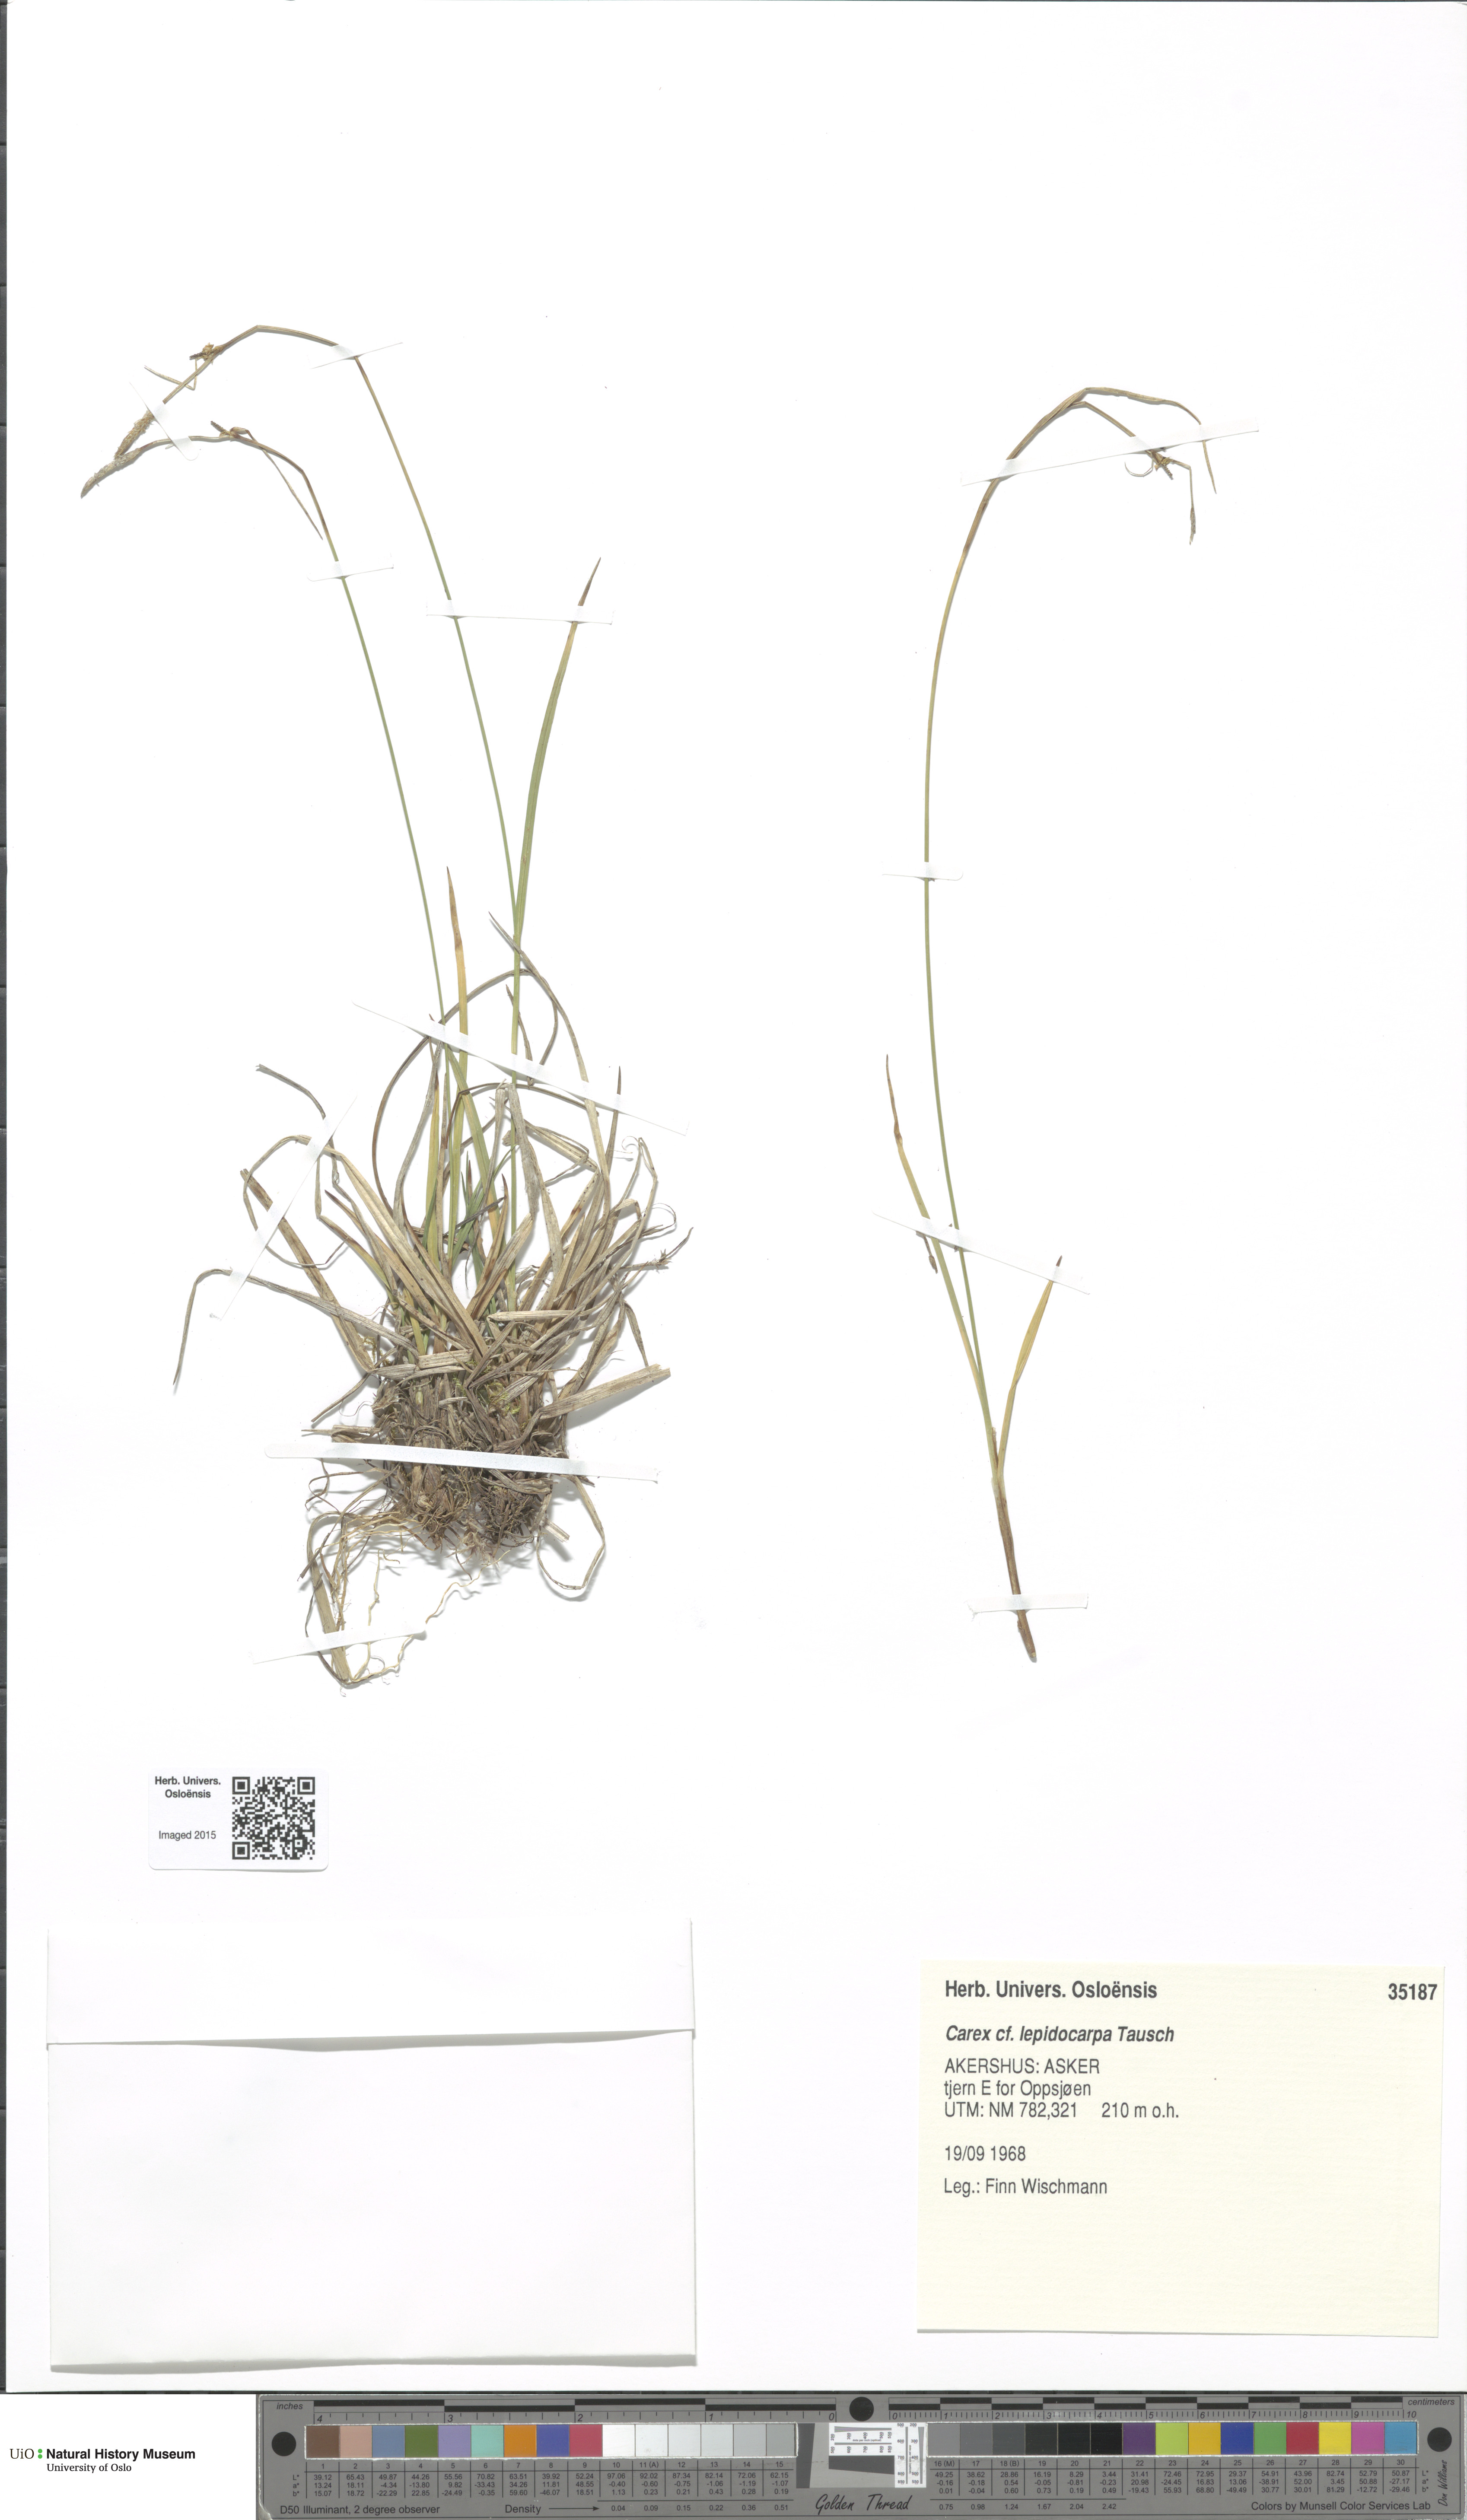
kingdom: Plantae
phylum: Tracheophyta
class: Liliopsida
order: Poales
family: Cyperaceae
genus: Carex
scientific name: Carex lepidocarpa
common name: Long-stalked yellow-sedge
